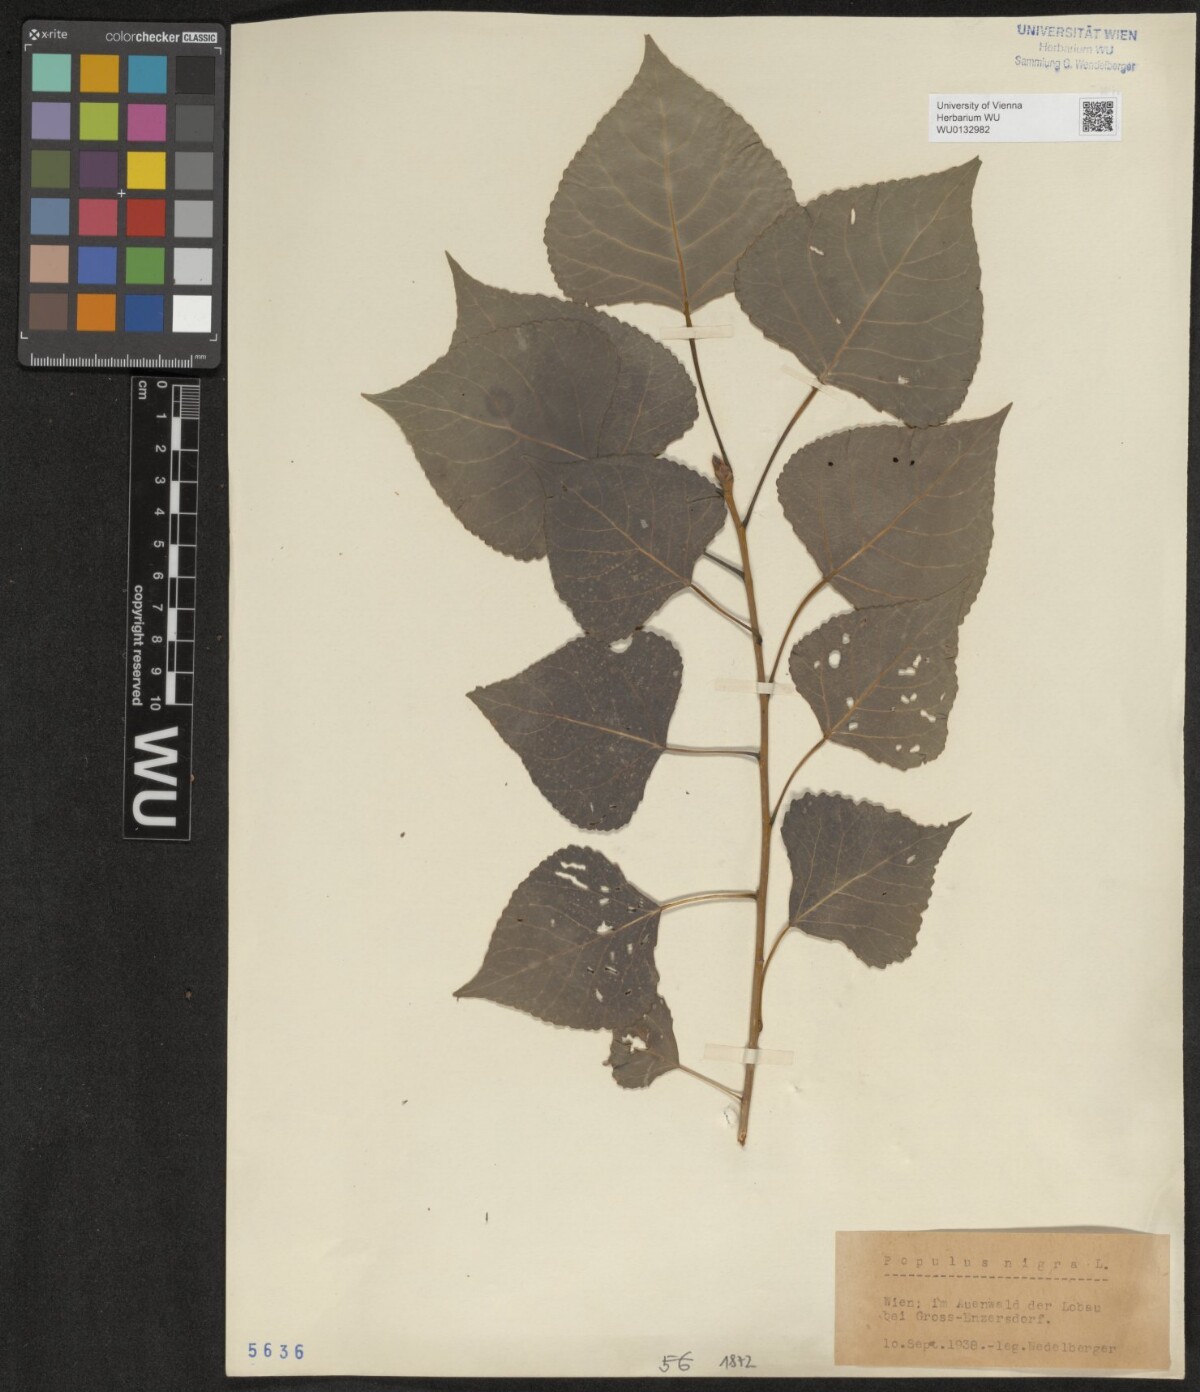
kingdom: Plantae
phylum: Tracheophyta
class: Magnoliopsida
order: Malpighiales
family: Salicaceae
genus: Populus
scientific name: Populus nigra
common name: Black poplar
